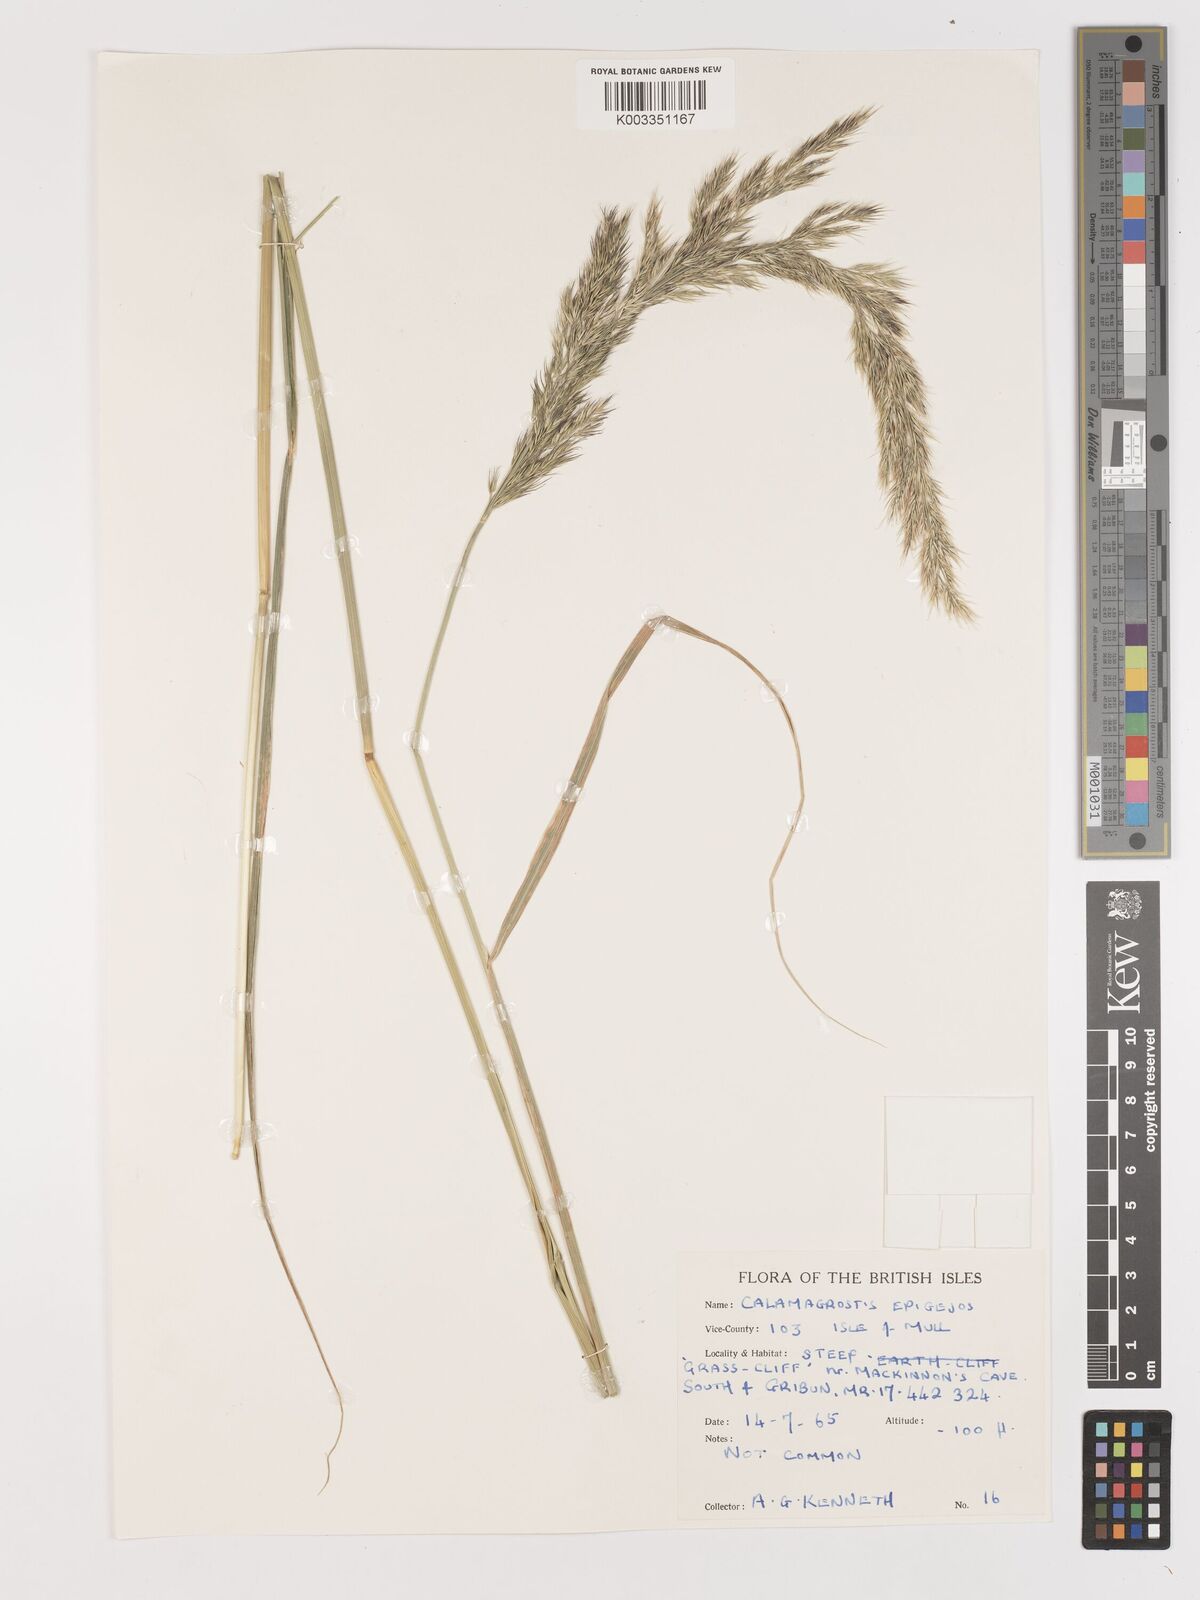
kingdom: Plantae
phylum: Tracheophyta
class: Liliopsida
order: Poales
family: Poaceae
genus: Calamagrostis
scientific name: Calamagrostis
